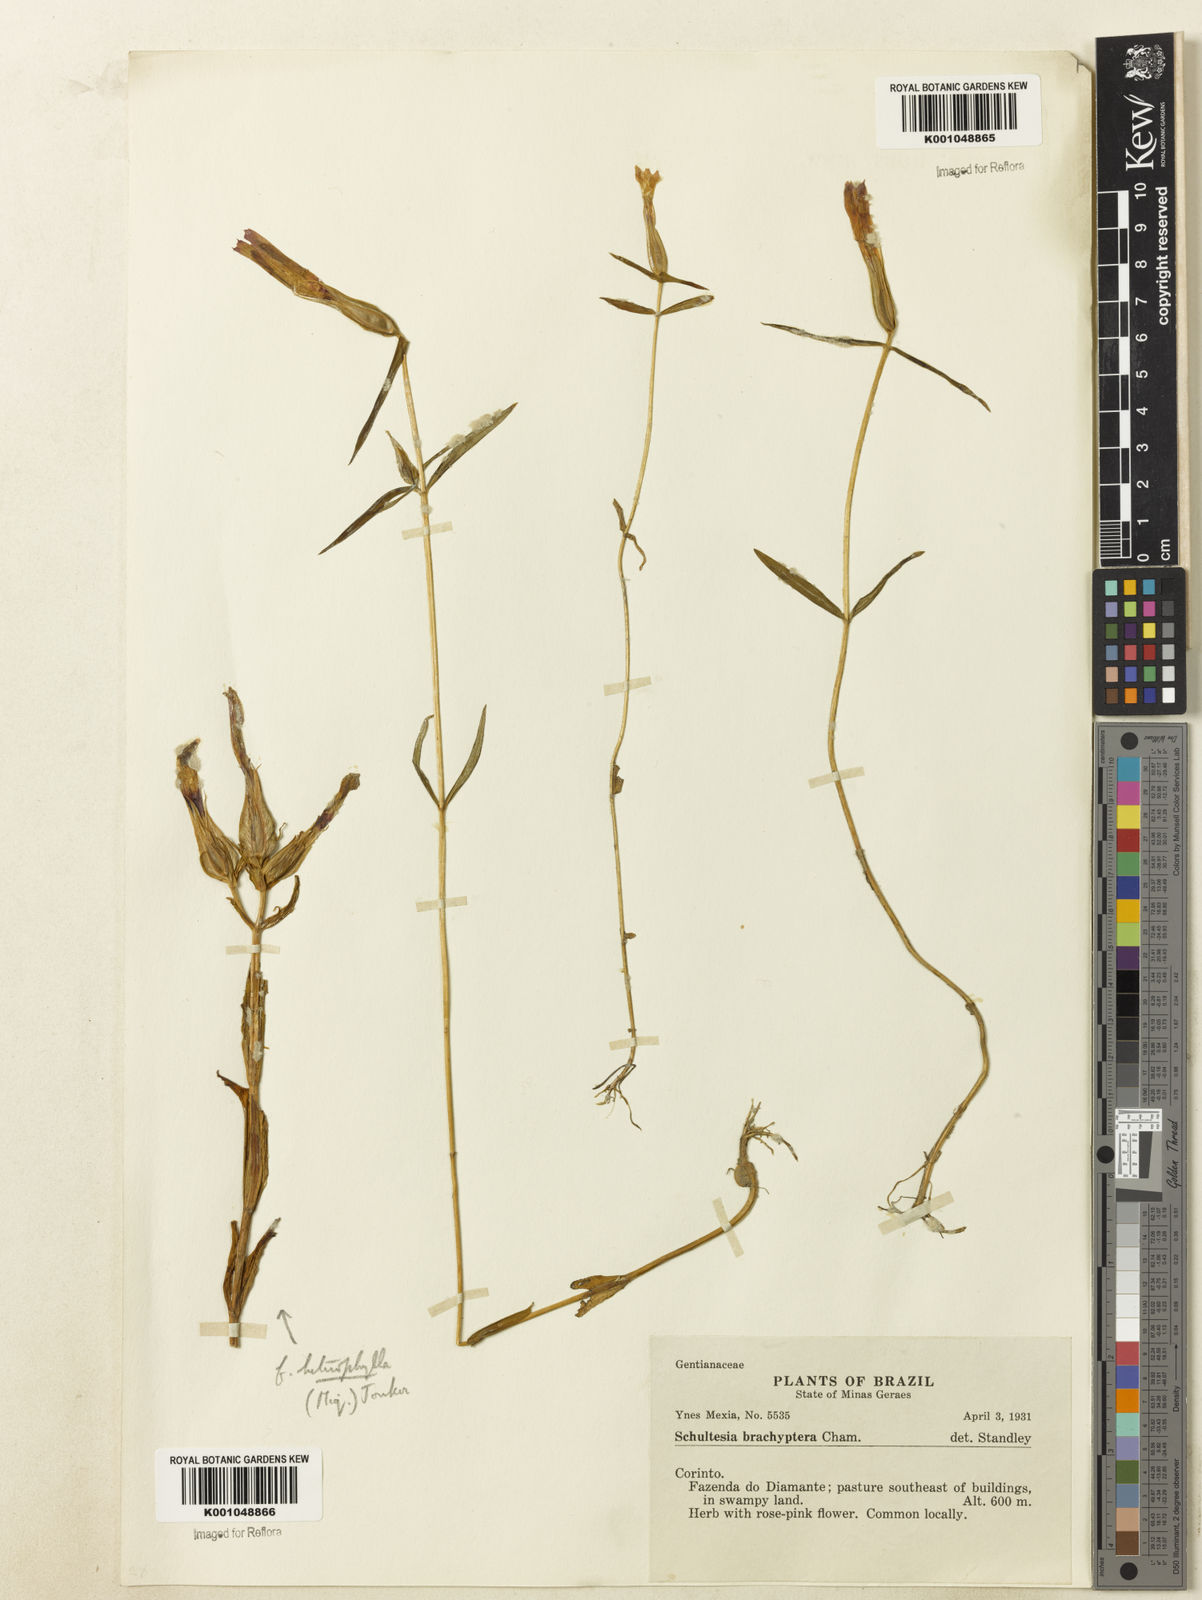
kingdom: Plantae
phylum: Tracheophyta
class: Magnoliopsida
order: Gentianales
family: Gentianaceae
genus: Schultesia
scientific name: Schultesia brachyptera
